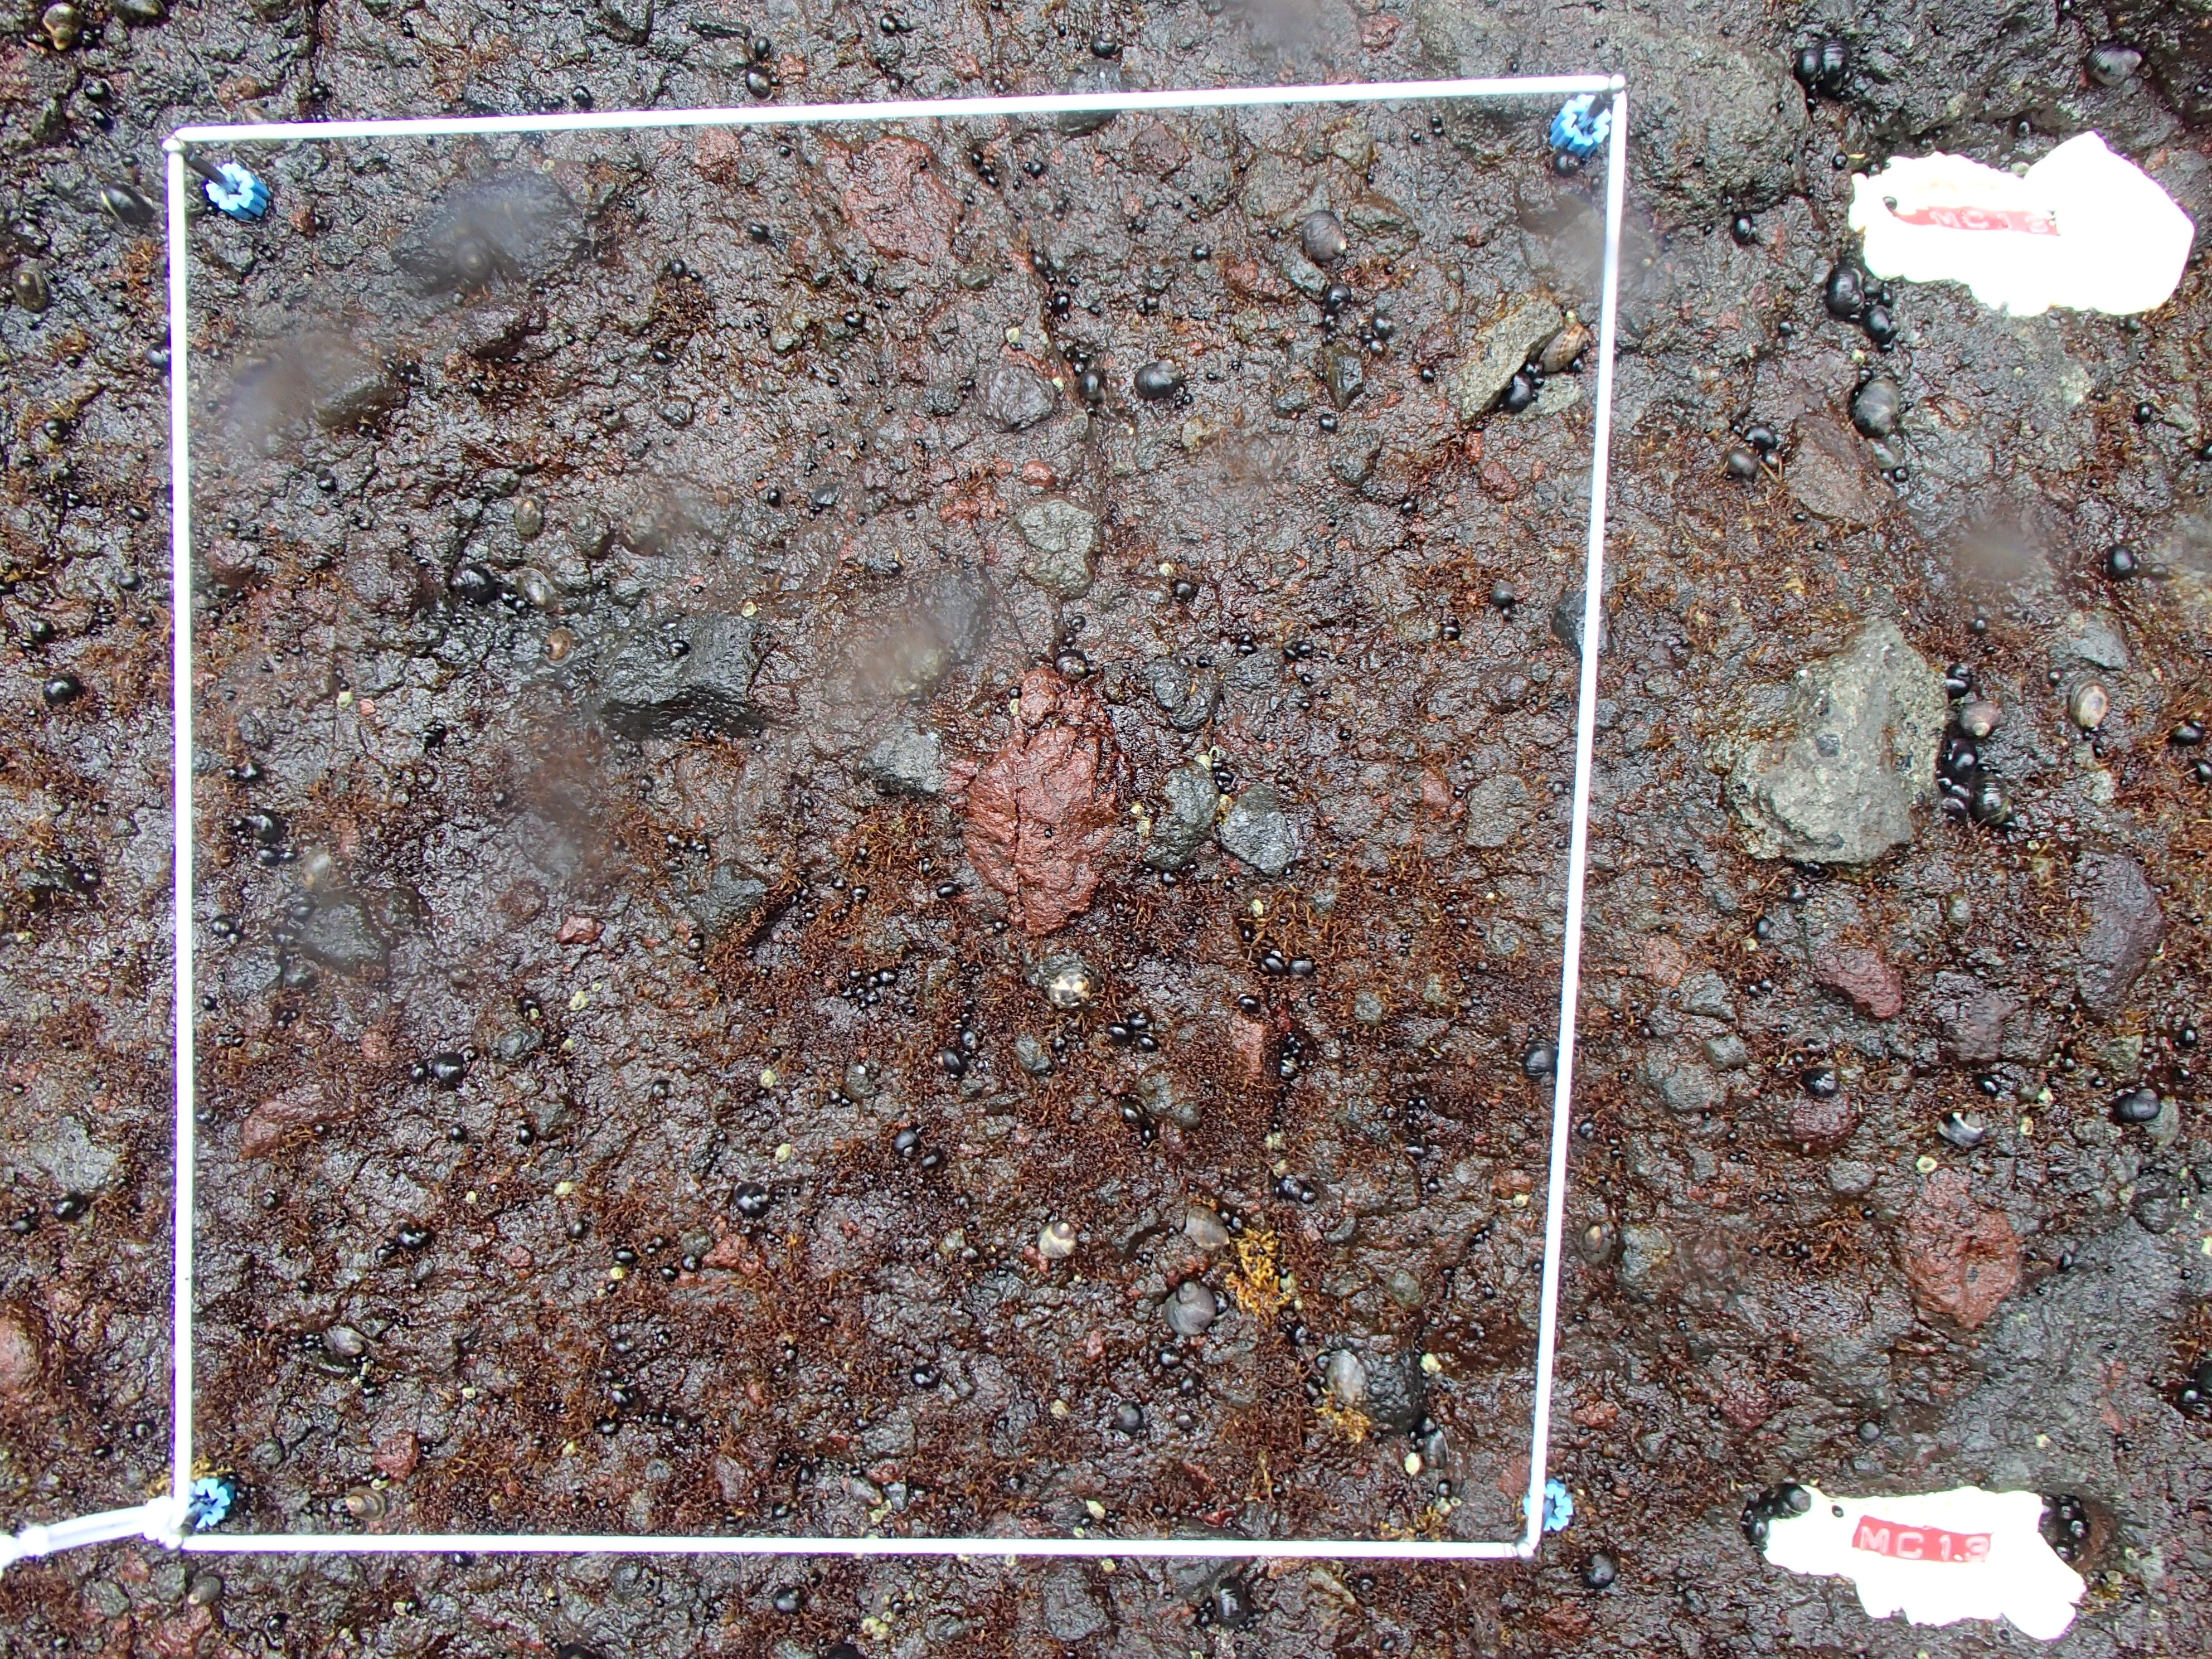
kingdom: Chromista
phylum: Ochrophyta
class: Phaeophyceae
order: Scytosiphonales
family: Scytosiphonaceae
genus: Analipus
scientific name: Analipus japonicus
